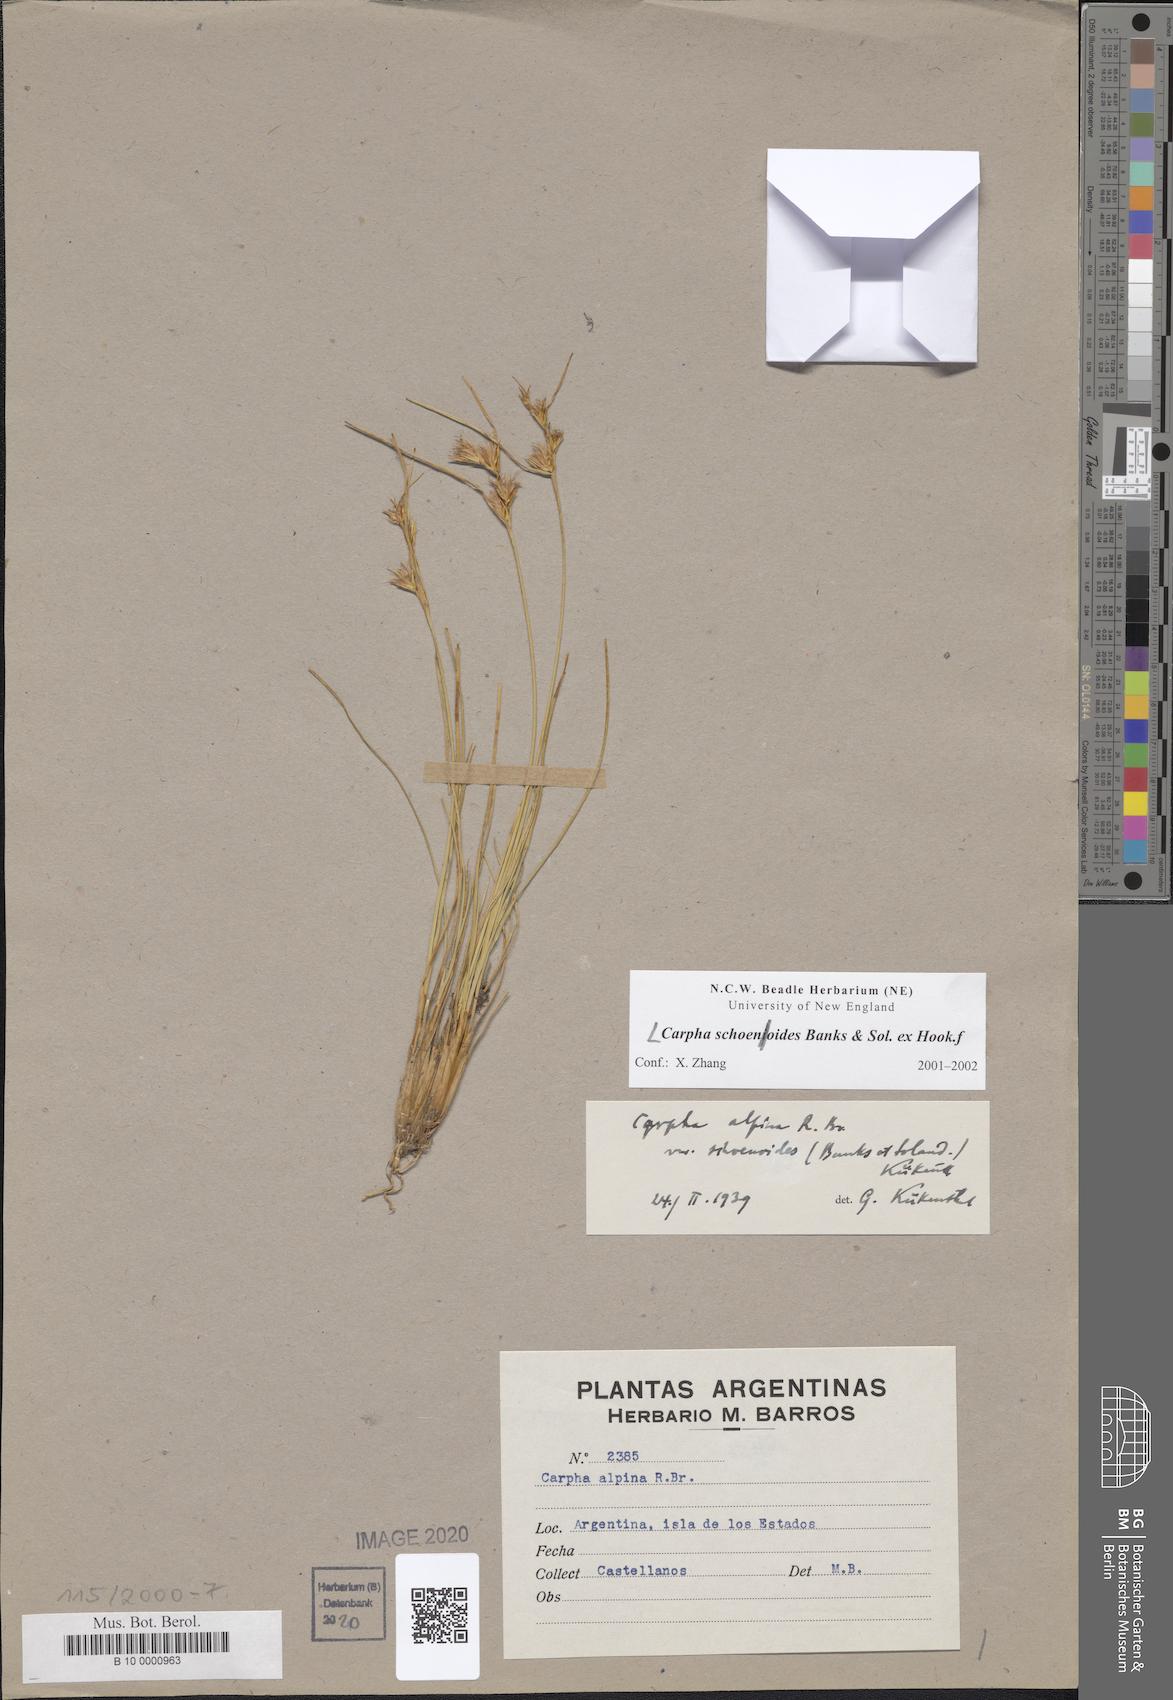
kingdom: Plantae
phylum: Tracheophyta
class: Liliopsida
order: Poales
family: Cyperaceae
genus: Carpha
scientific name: Carpha schoenoides
